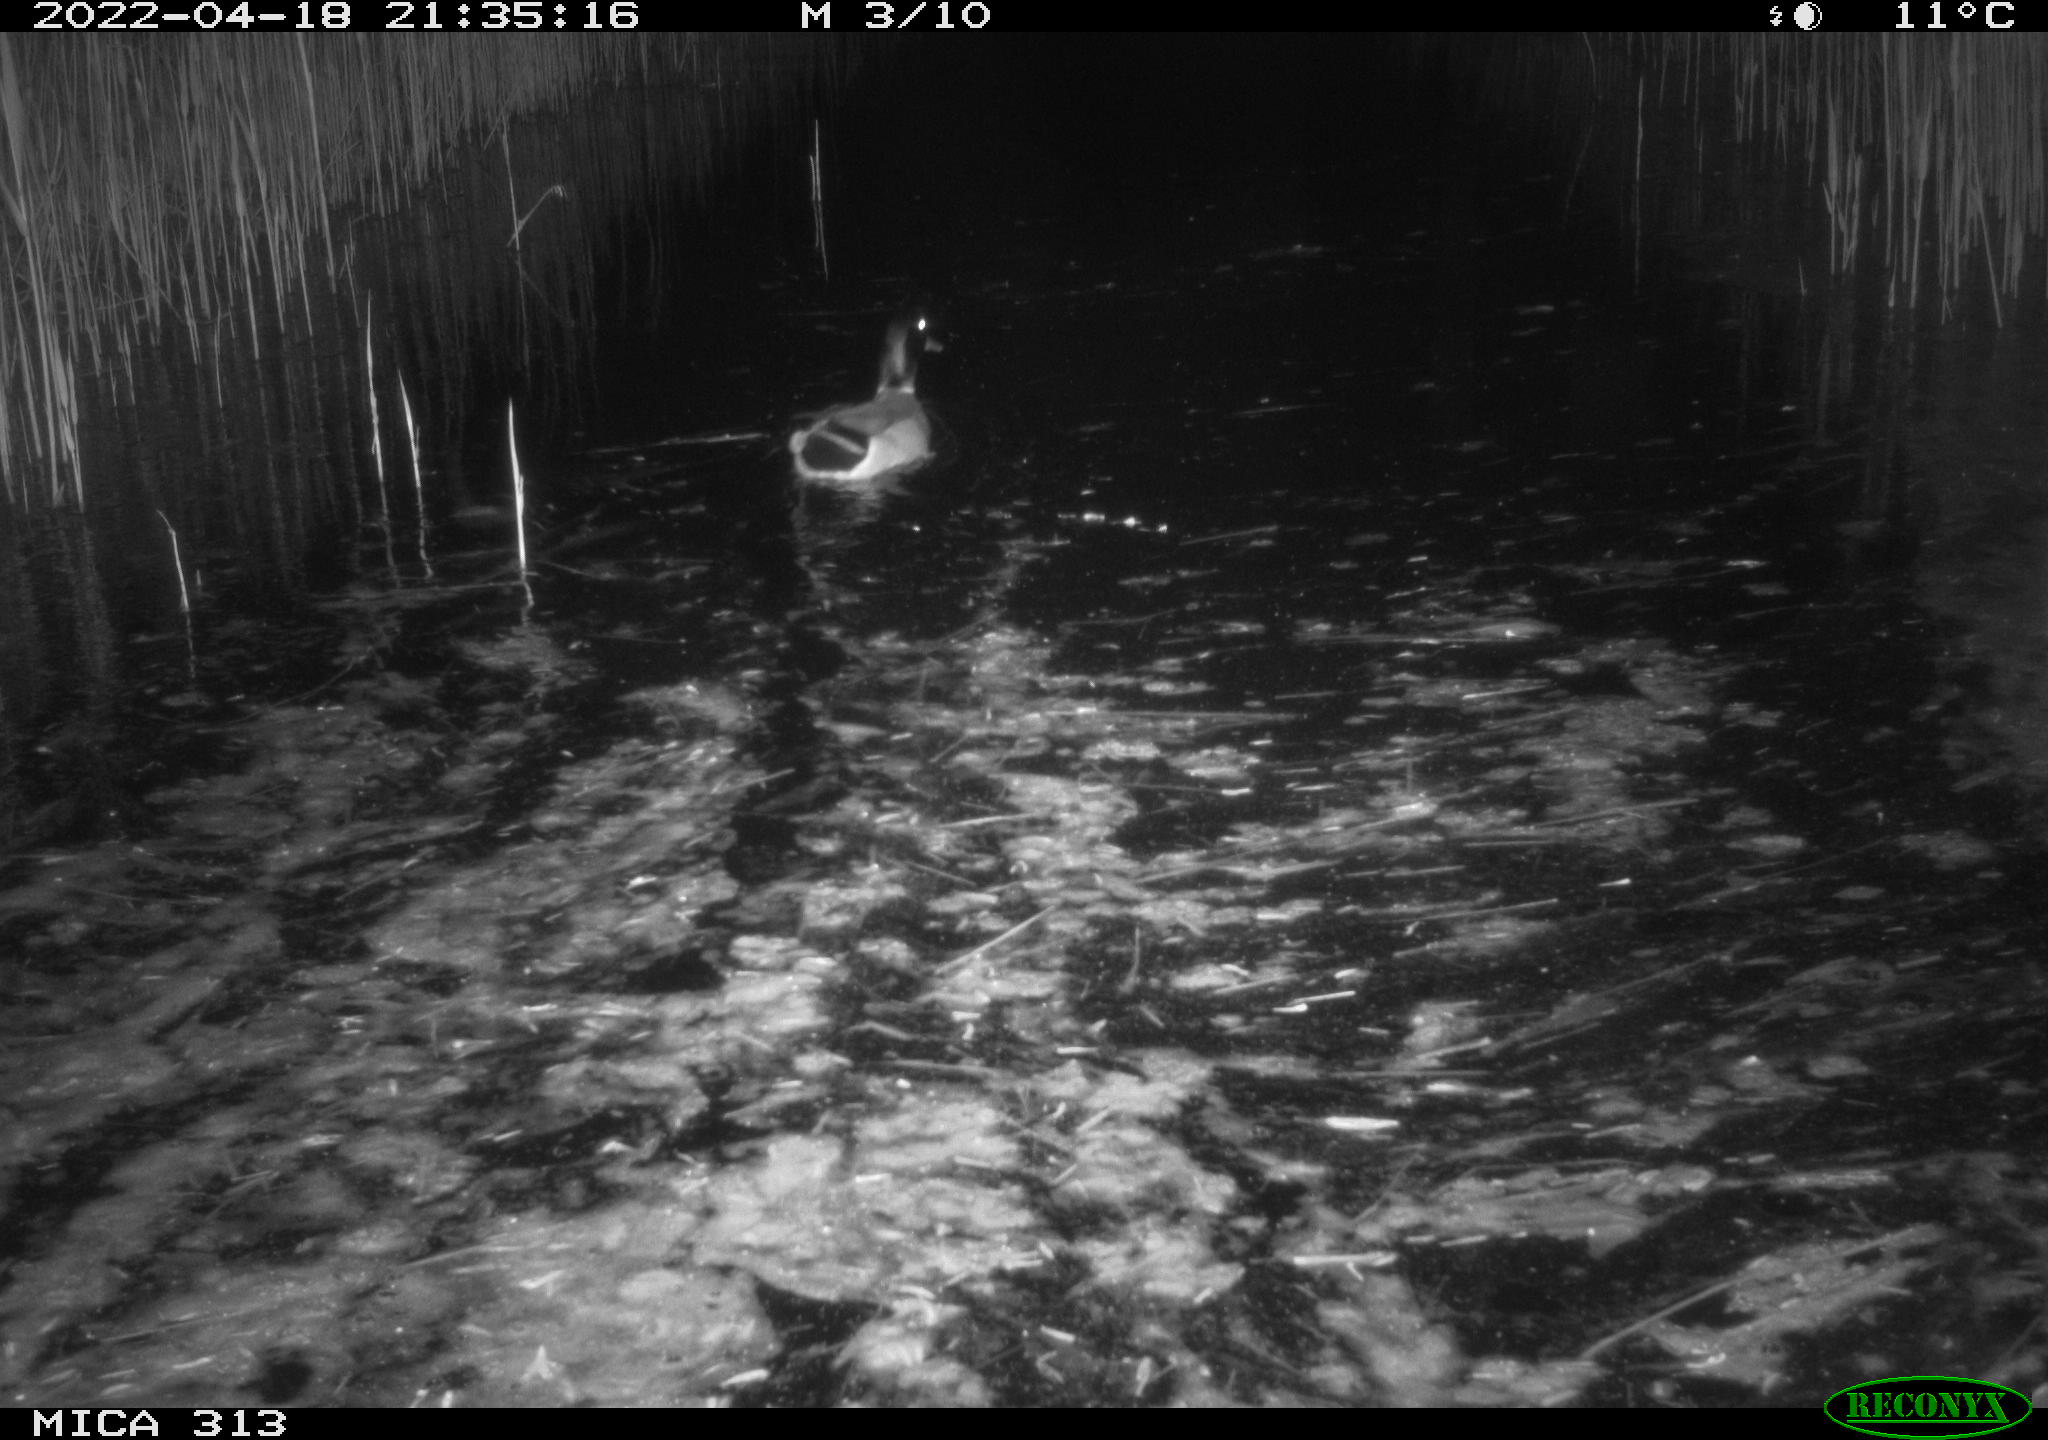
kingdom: Animalia
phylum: Chordata
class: Aves
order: Anseriformes
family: Anatidae
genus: Anas
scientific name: Anas platyrhynchos
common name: Mallard
